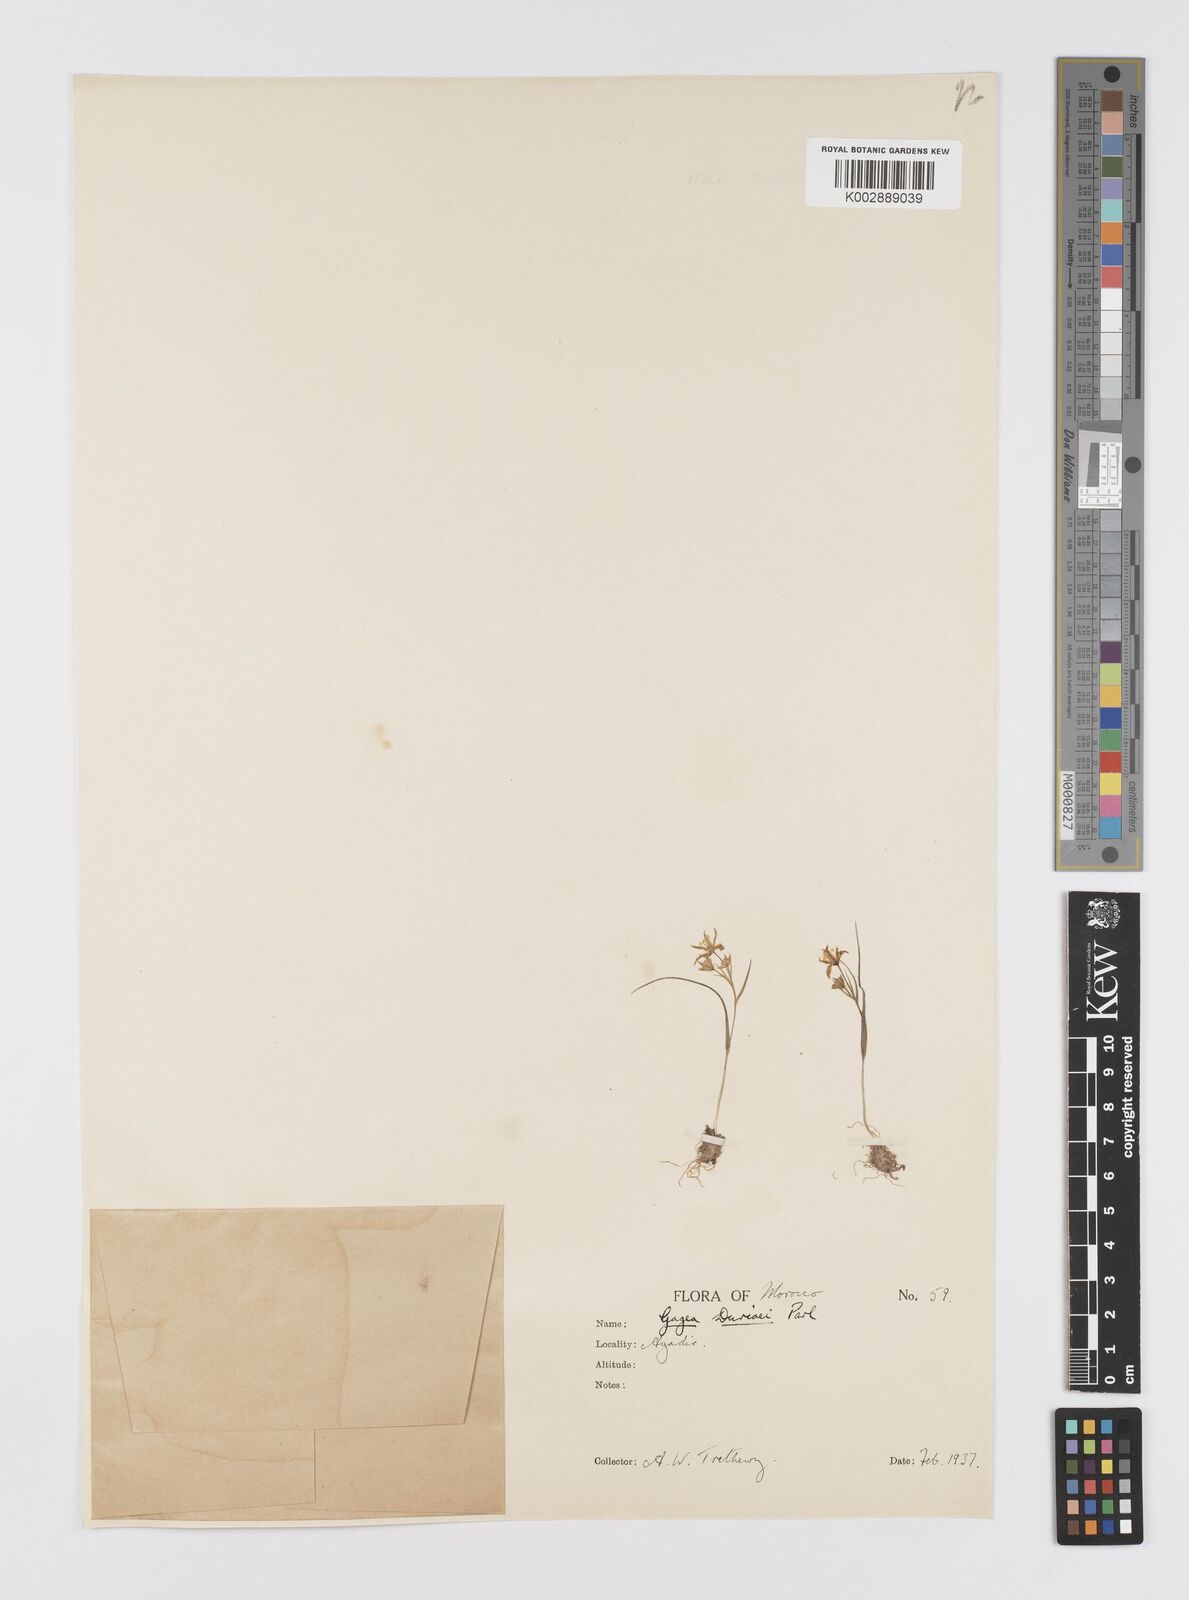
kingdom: Plantae
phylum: Tracheophyta
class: Liliopsida
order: Liliales
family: Liliaceae
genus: Gagea
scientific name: Gagea durieui
